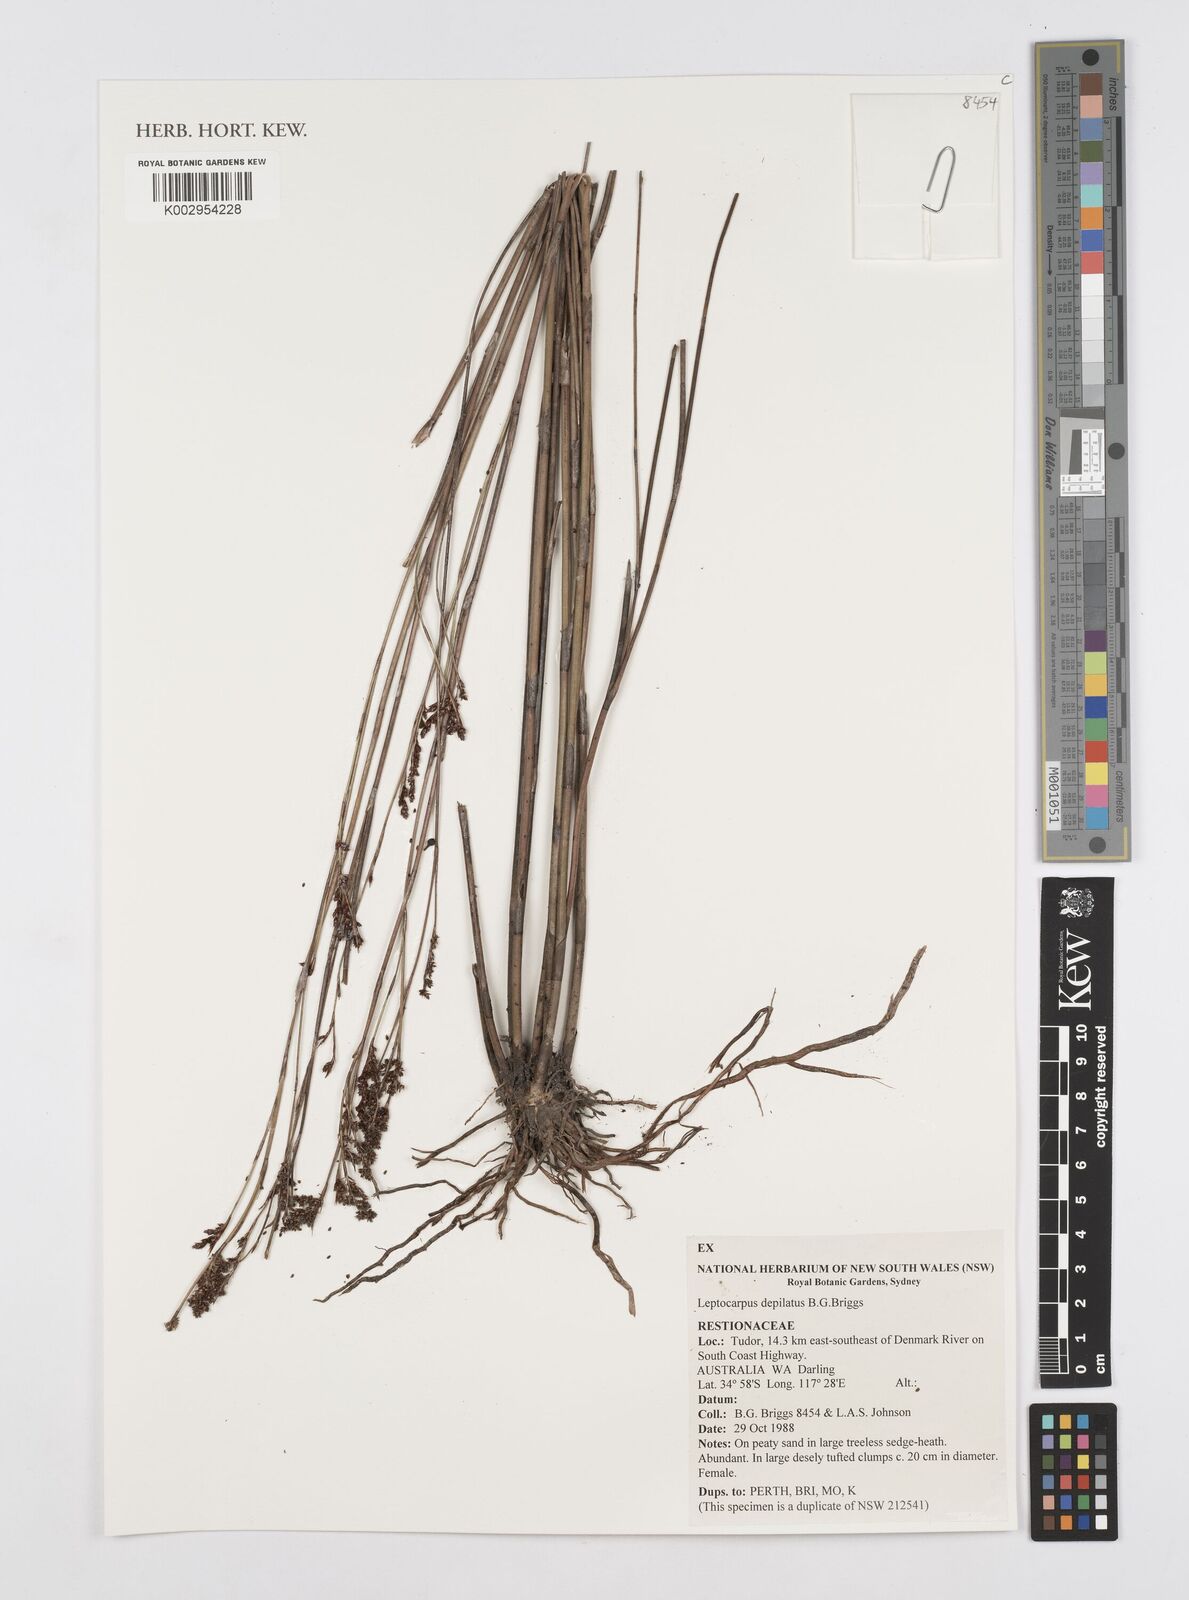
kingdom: Plantae
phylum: Tracheophyta
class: Liliopsida
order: Poales
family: Restionaceae
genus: Leptocarpus
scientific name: Leptocarpus depilatus
